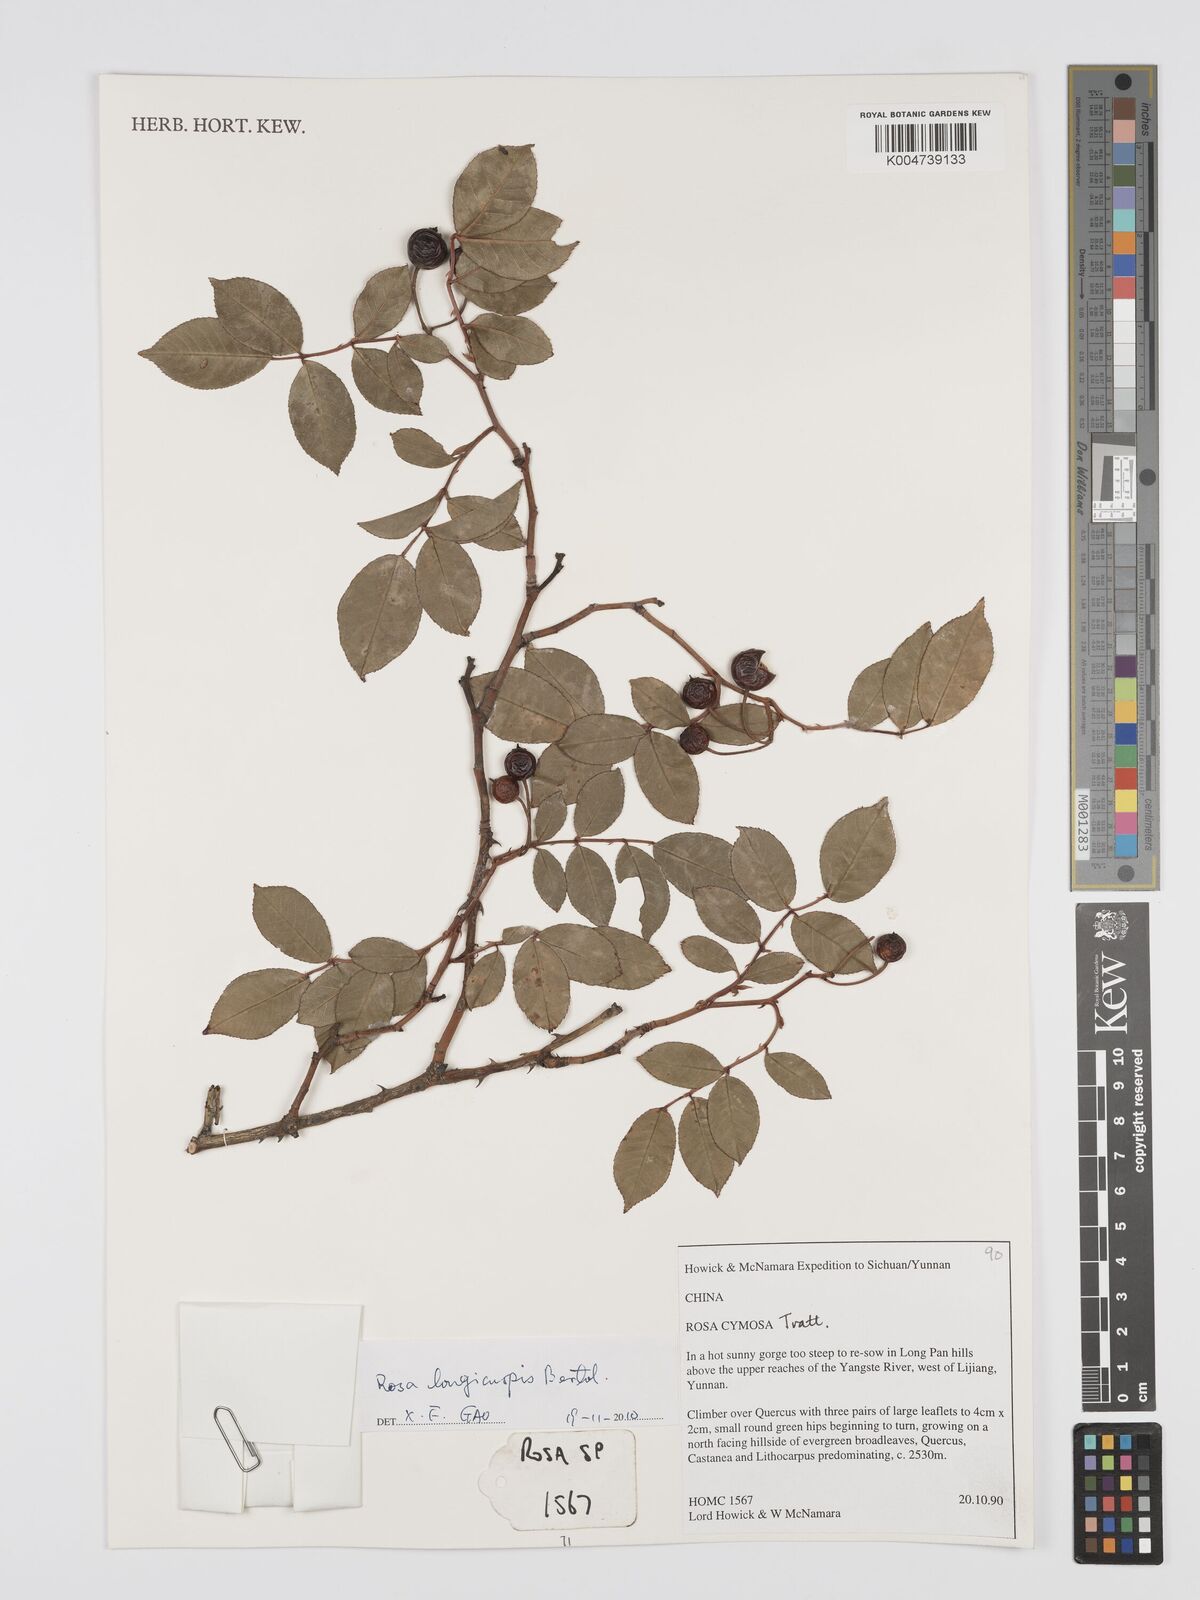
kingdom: Plantae
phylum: Tracheophyta
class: Magnoliopsida
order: Rosales
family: Rosaceae
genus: Rosa
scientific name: Rosa longicuspis
